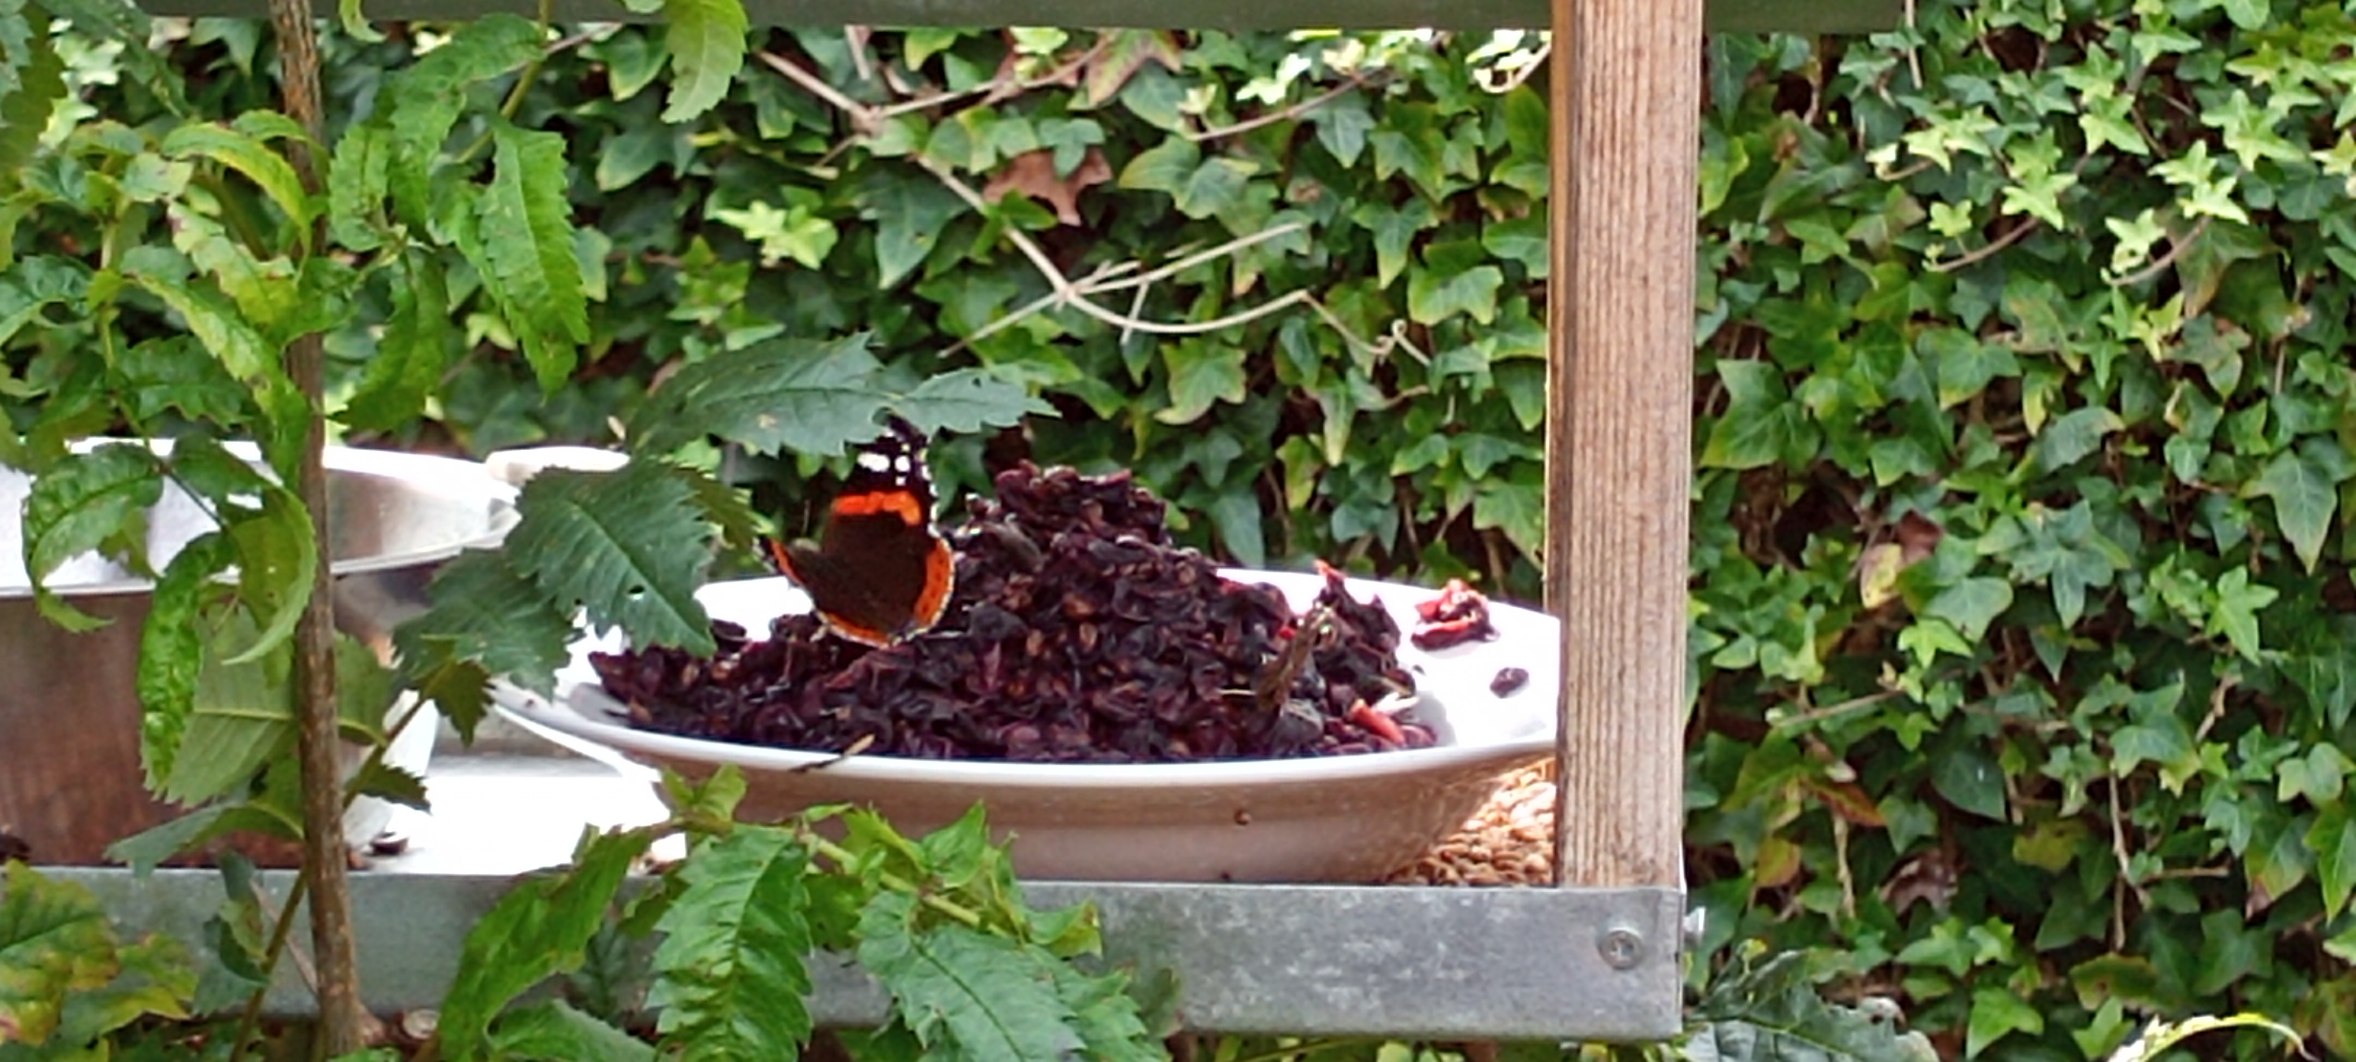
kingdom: Animalia
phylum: Arthropoda
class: Insecta
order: Lepidoptera
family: Nymphalidae
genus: Vanessa
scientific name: Vanessa atalanta
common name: Admiral
